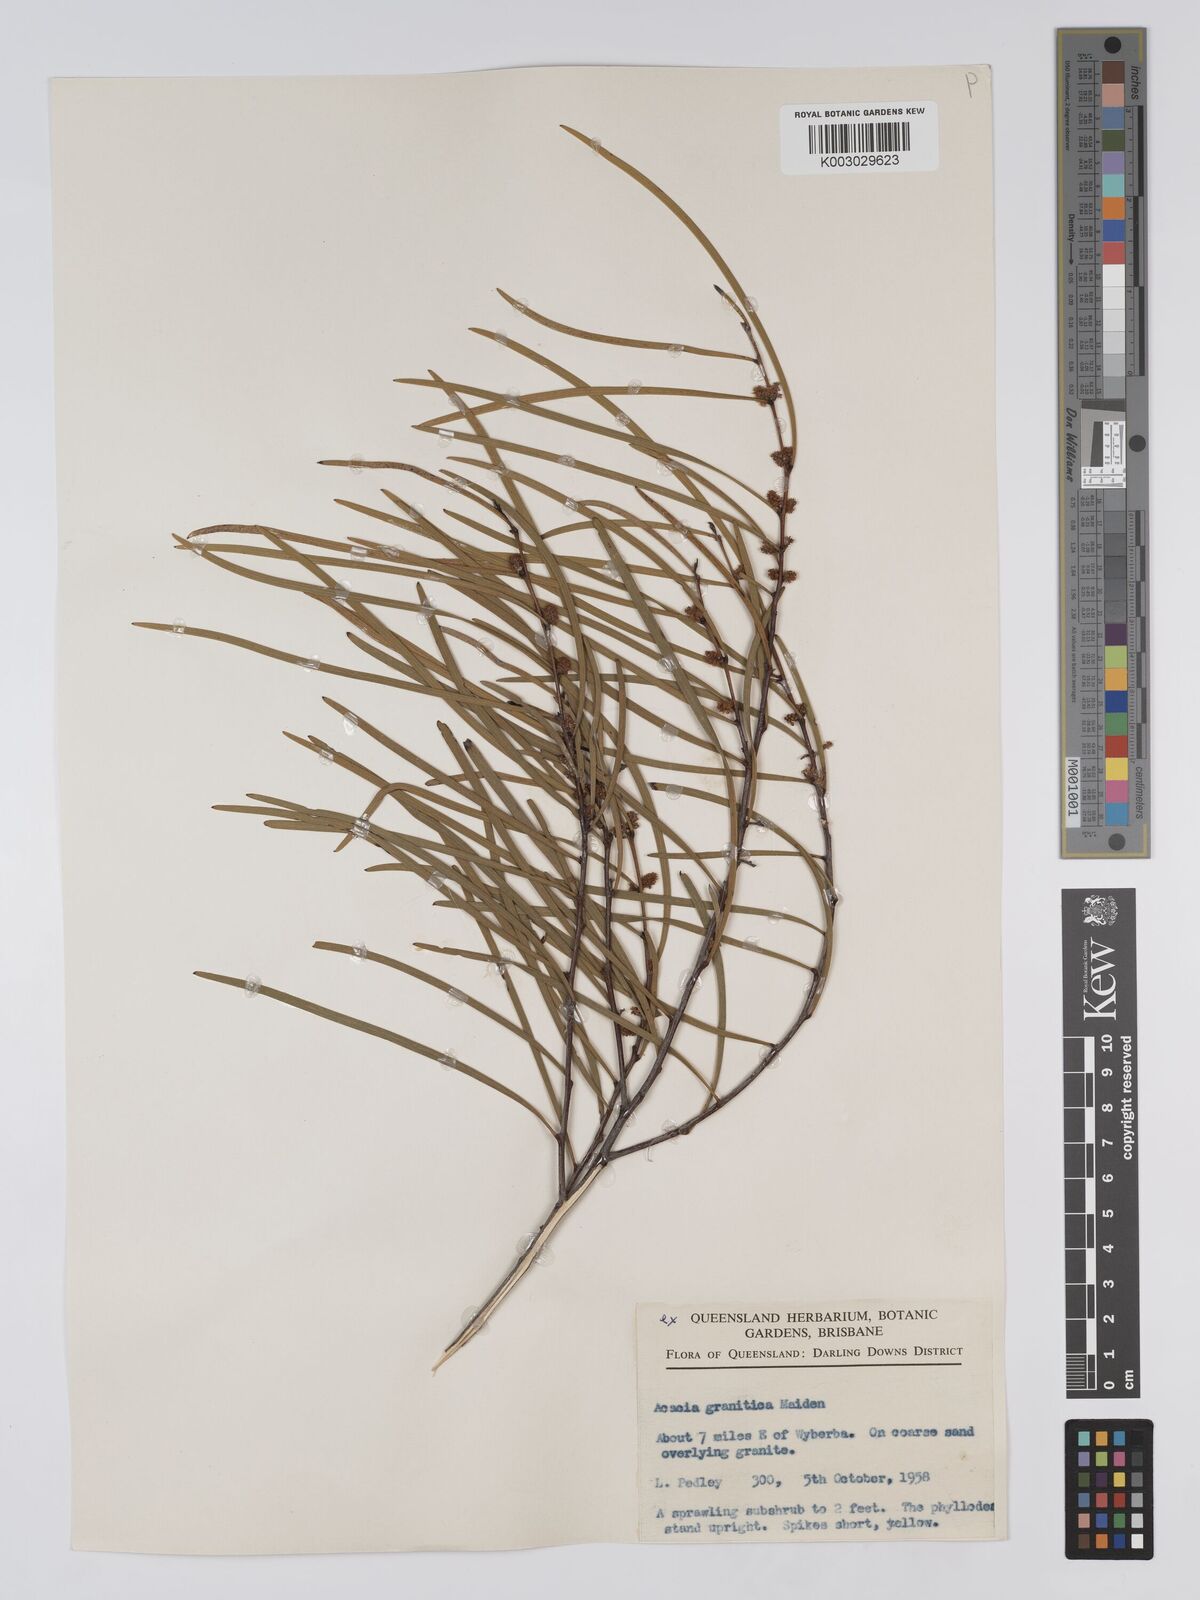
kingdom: Plantae
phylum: Tracheophyta
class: Magnoliopsida
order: Fabales
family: Fabaceae
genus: Acacia
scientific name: Acacia granitica
